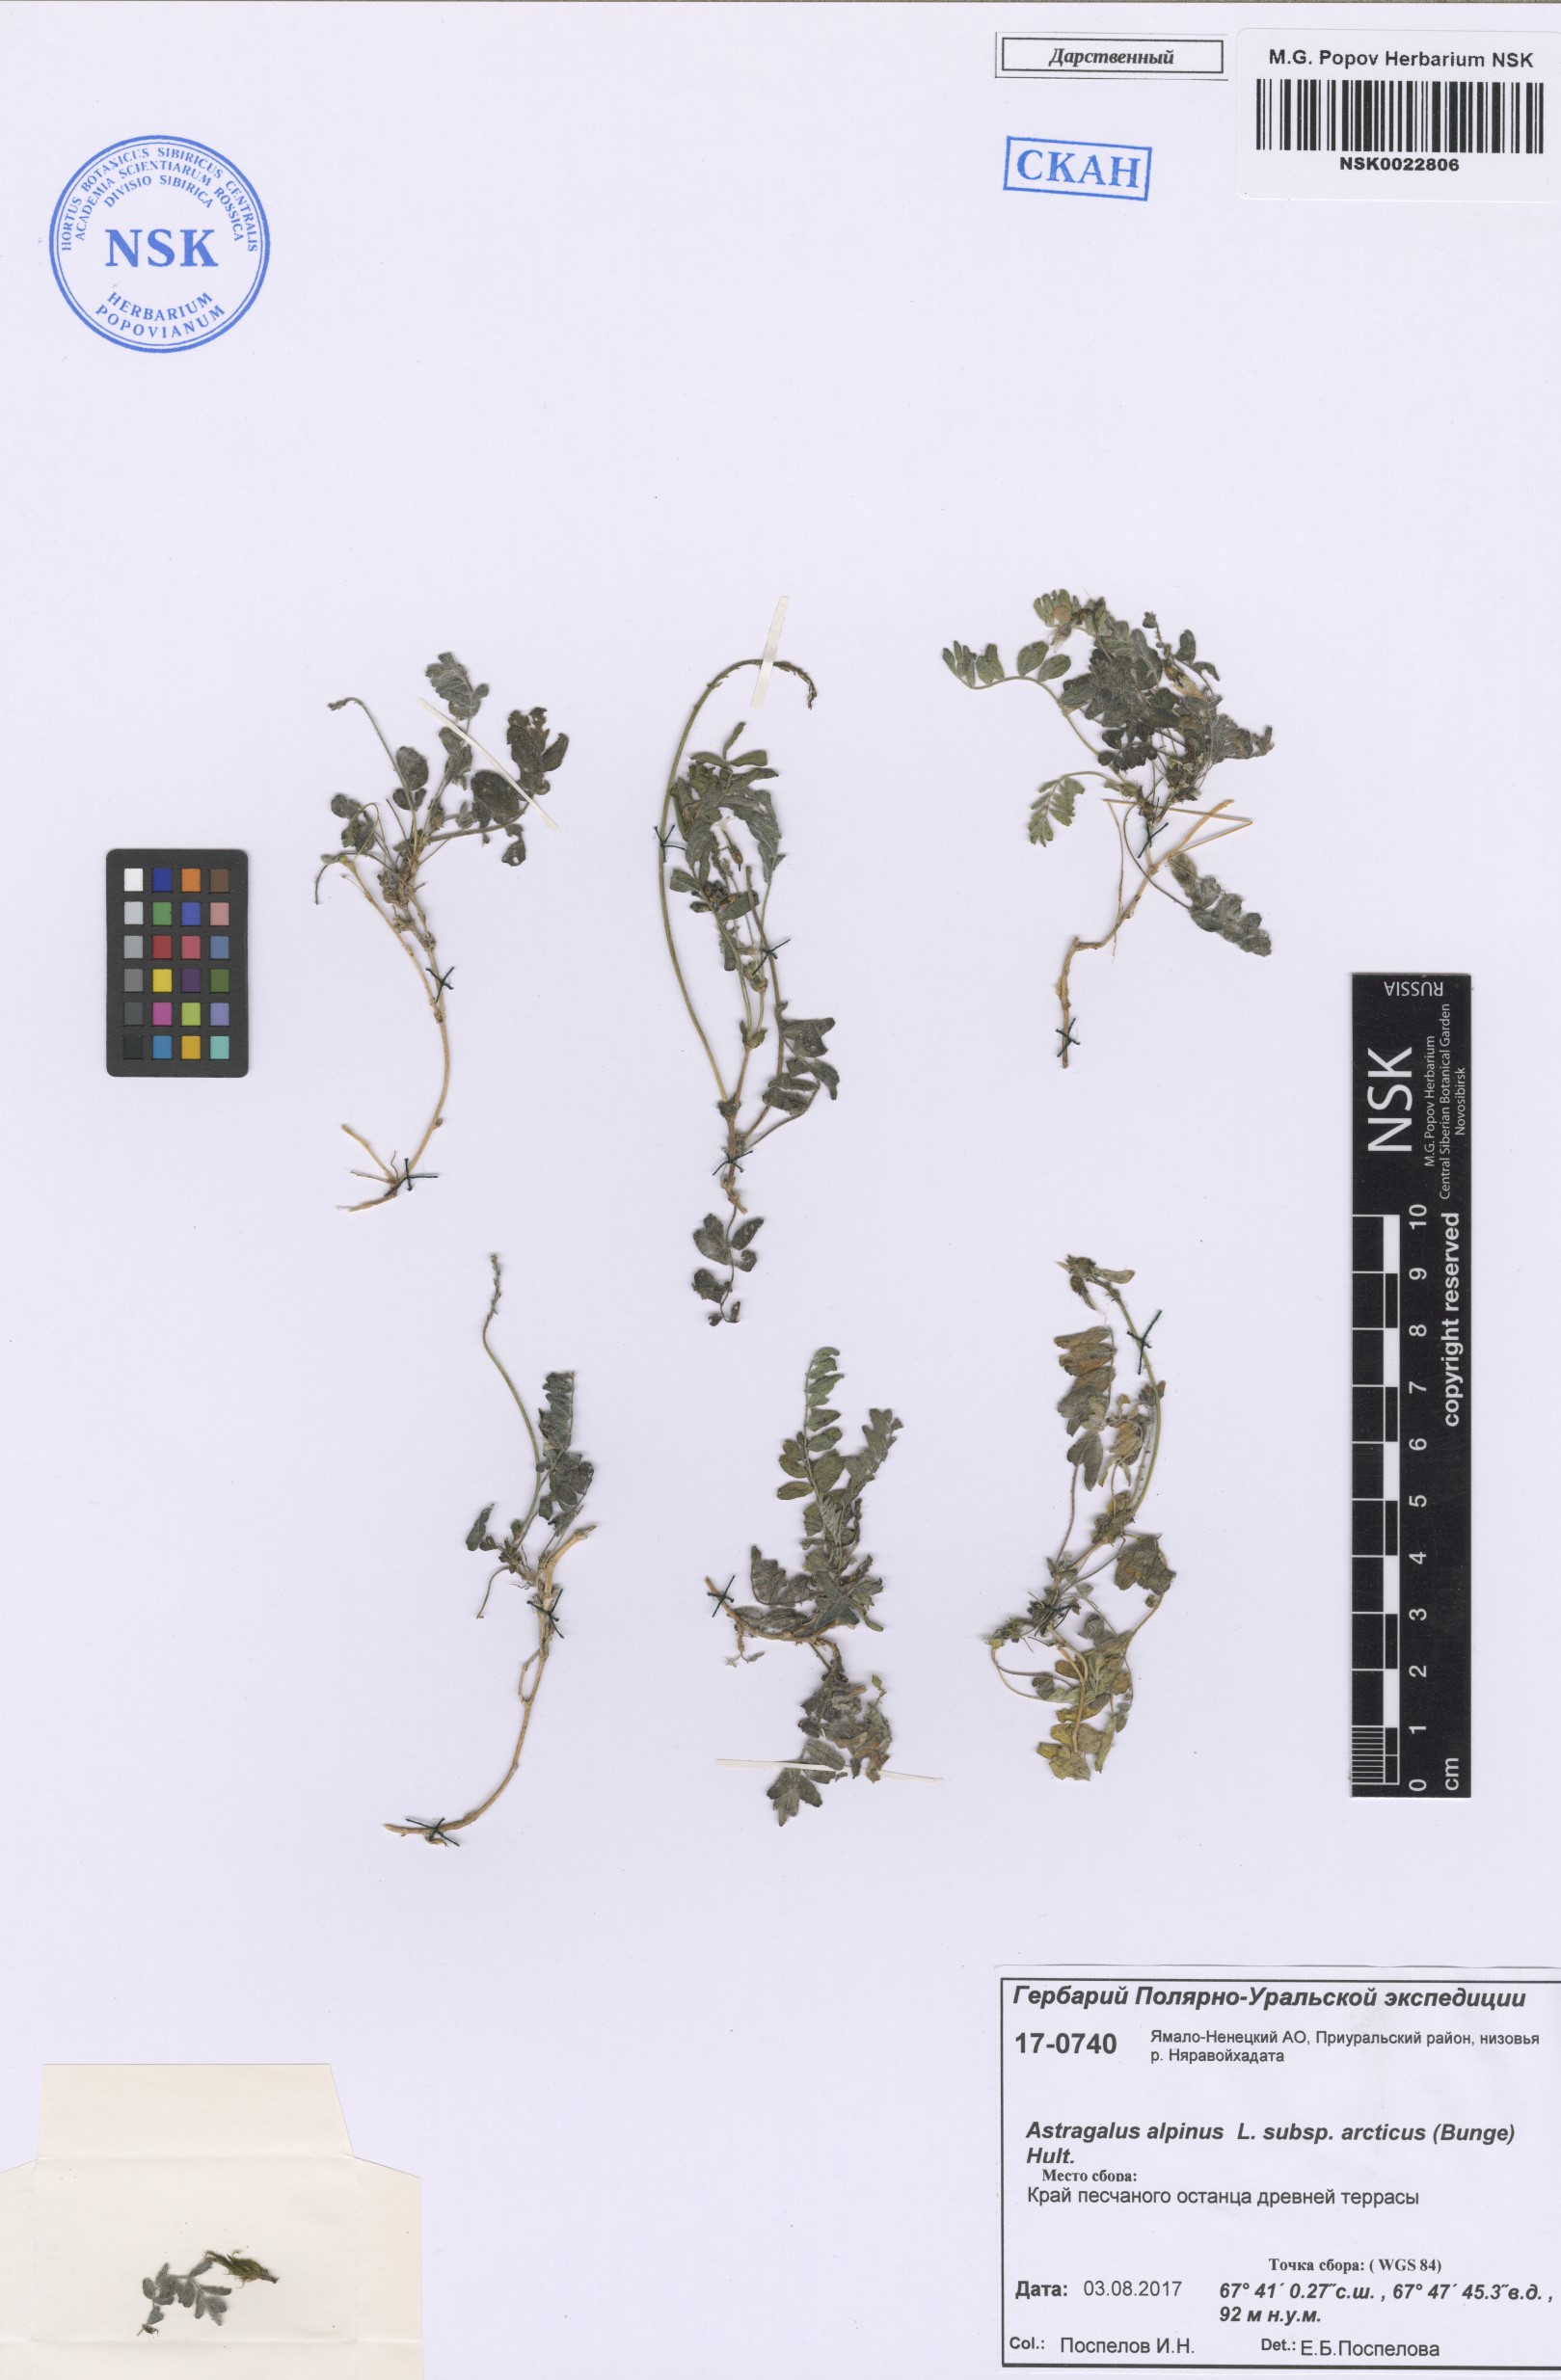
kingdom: Plantae
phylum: Tracheophyta
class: Magnoliopsida
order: Fabales
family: Fabaceae
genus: Astragalus
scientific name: Astragalus norvegicus
